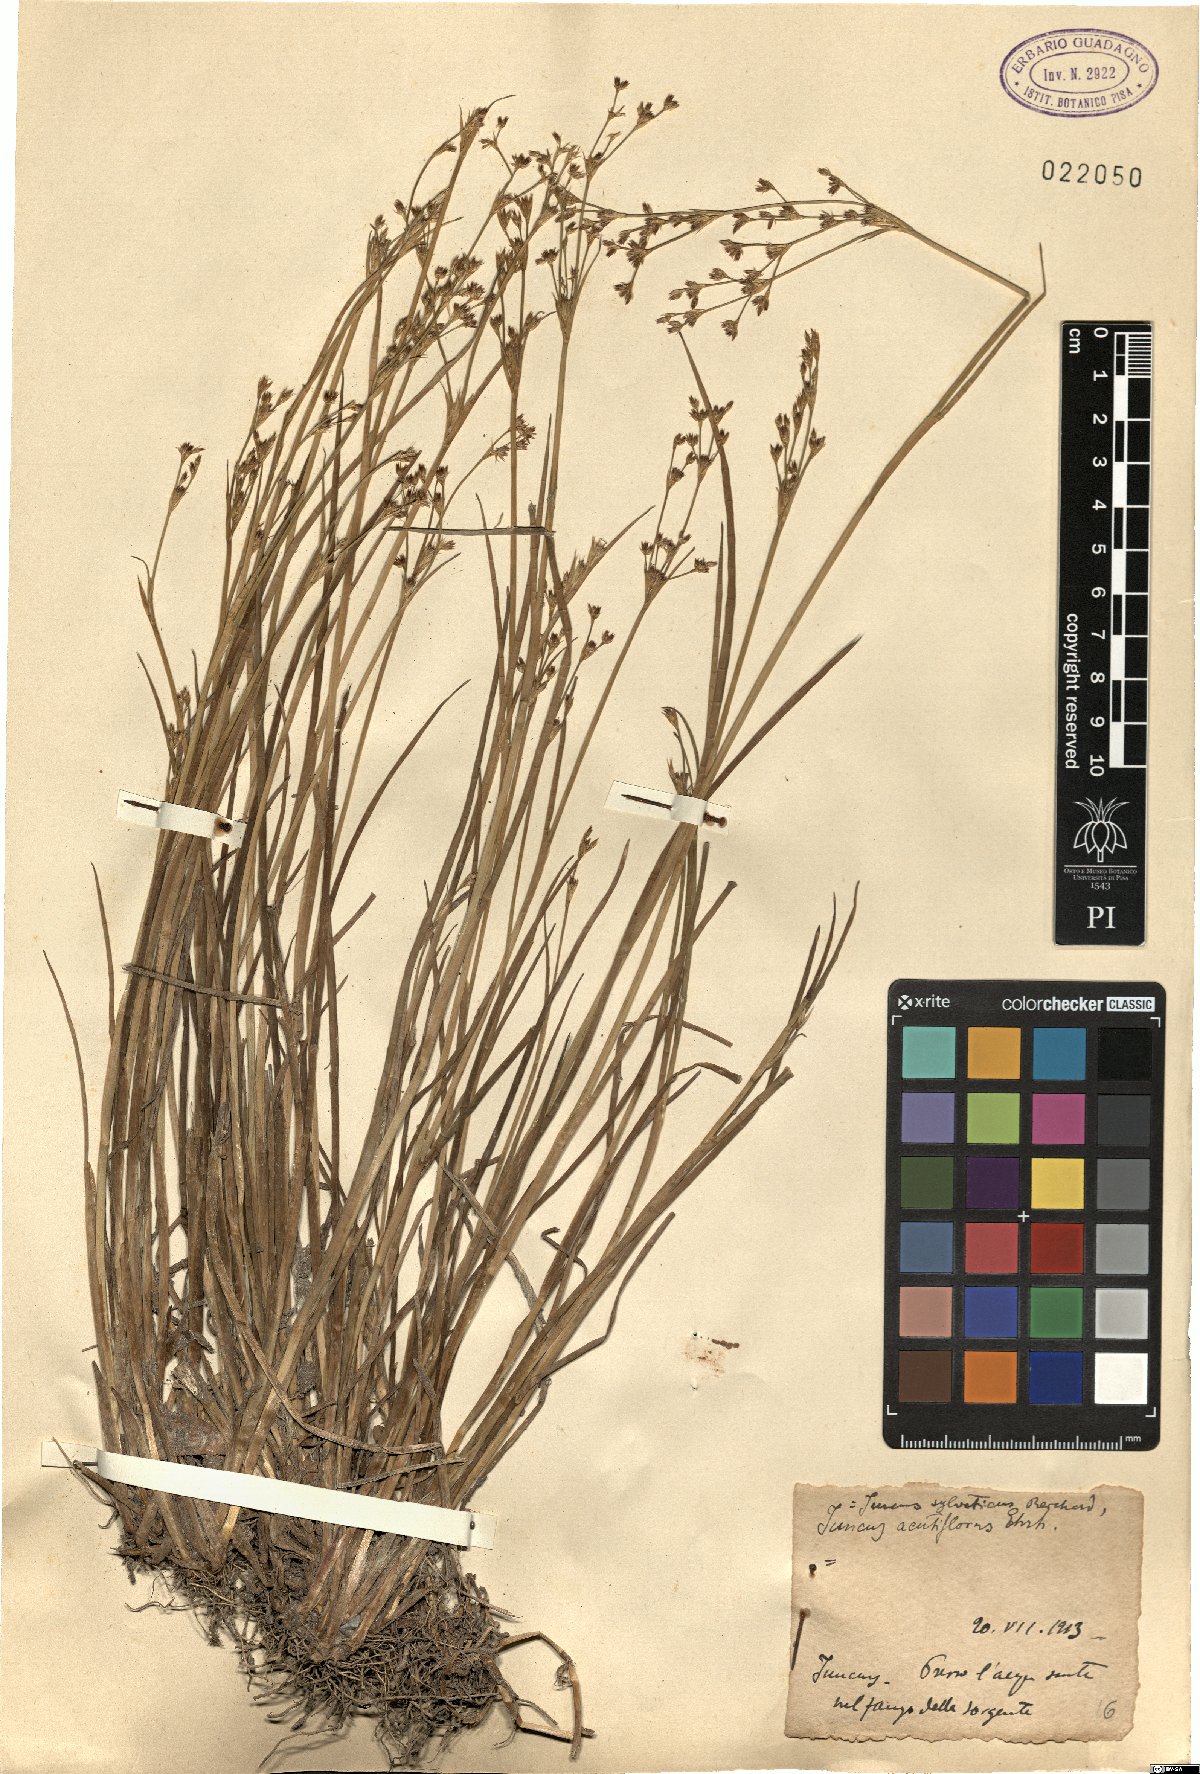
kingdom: Plantae
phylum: Tracheophyta
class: Liliopsida
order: Poales
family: Juncaceae
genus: Juncus
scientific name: Juncus acutiflorus
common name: Sharp-flowered rush
